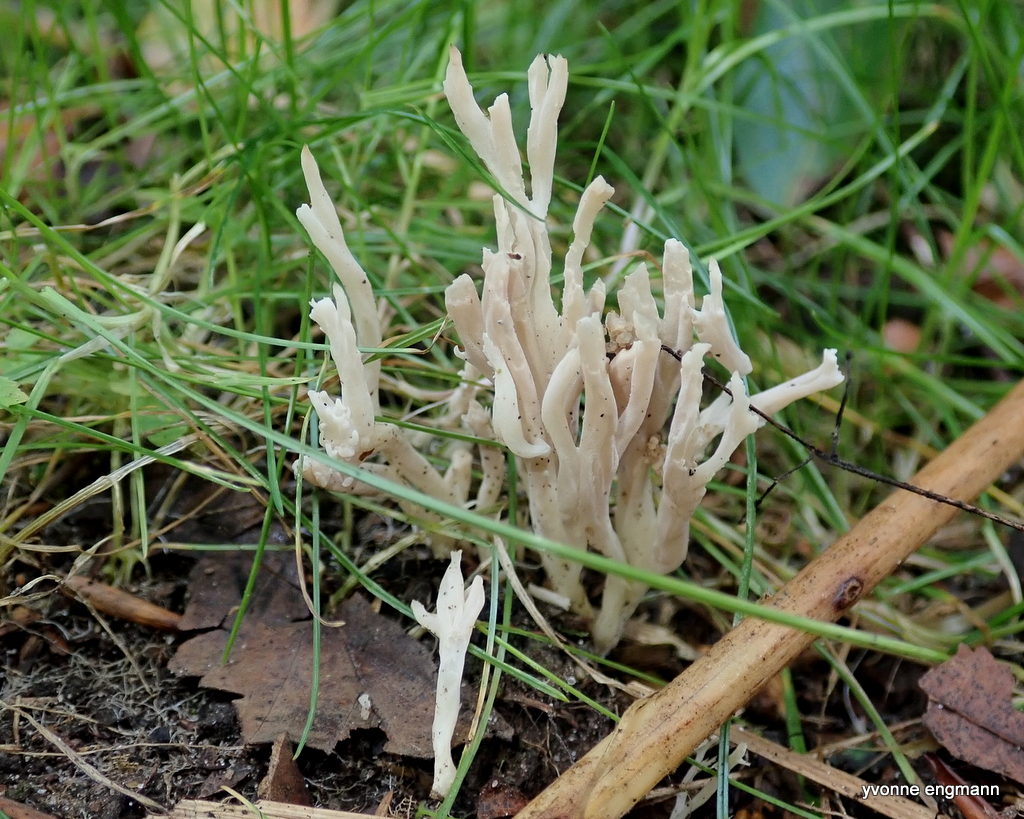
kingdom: Fungi
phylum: Basidiomycota
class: Agaricomycetes
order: Gomphales
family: Gomphaceae
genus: Ramaria
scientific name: Ramaria stricta
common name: rank koralsvamp
